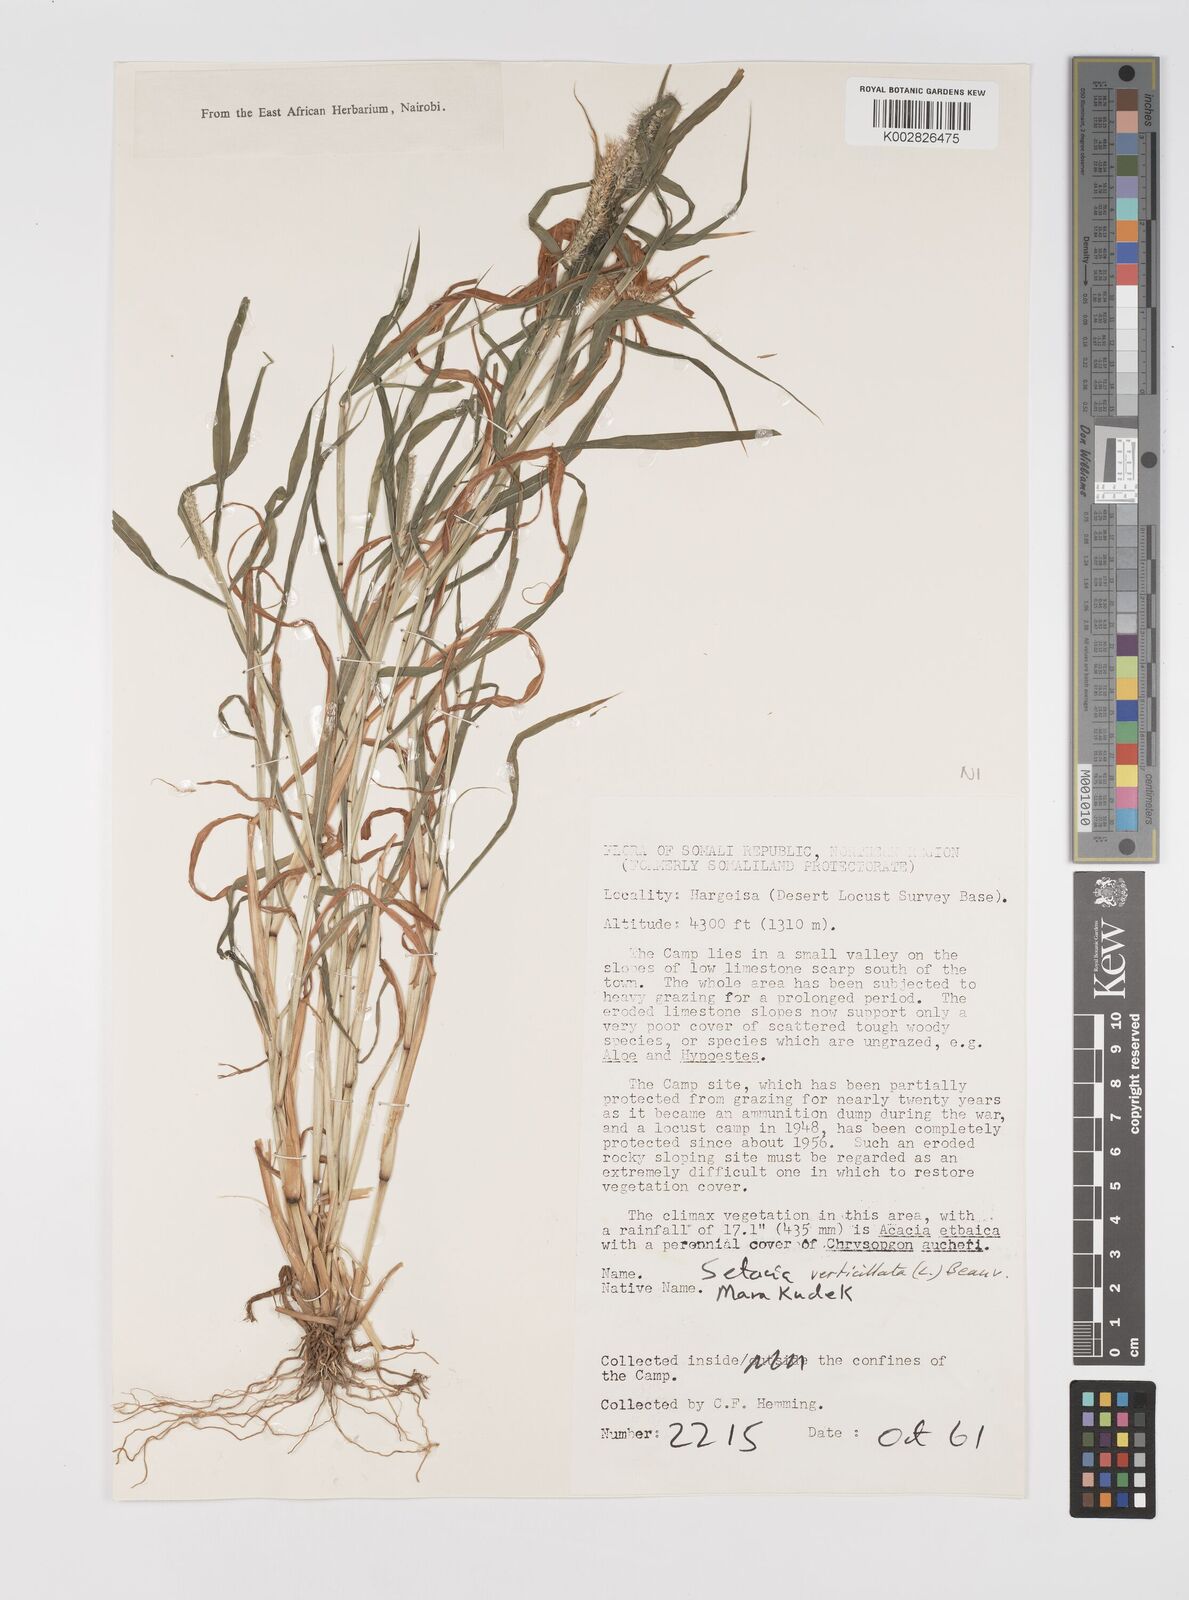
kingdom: Plantae
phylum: Tracheophyta
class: Liliopsida
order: Poales
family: Poaceae
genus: Setaria
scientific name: Setaria verticillata
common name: Hooked bristlegrass
